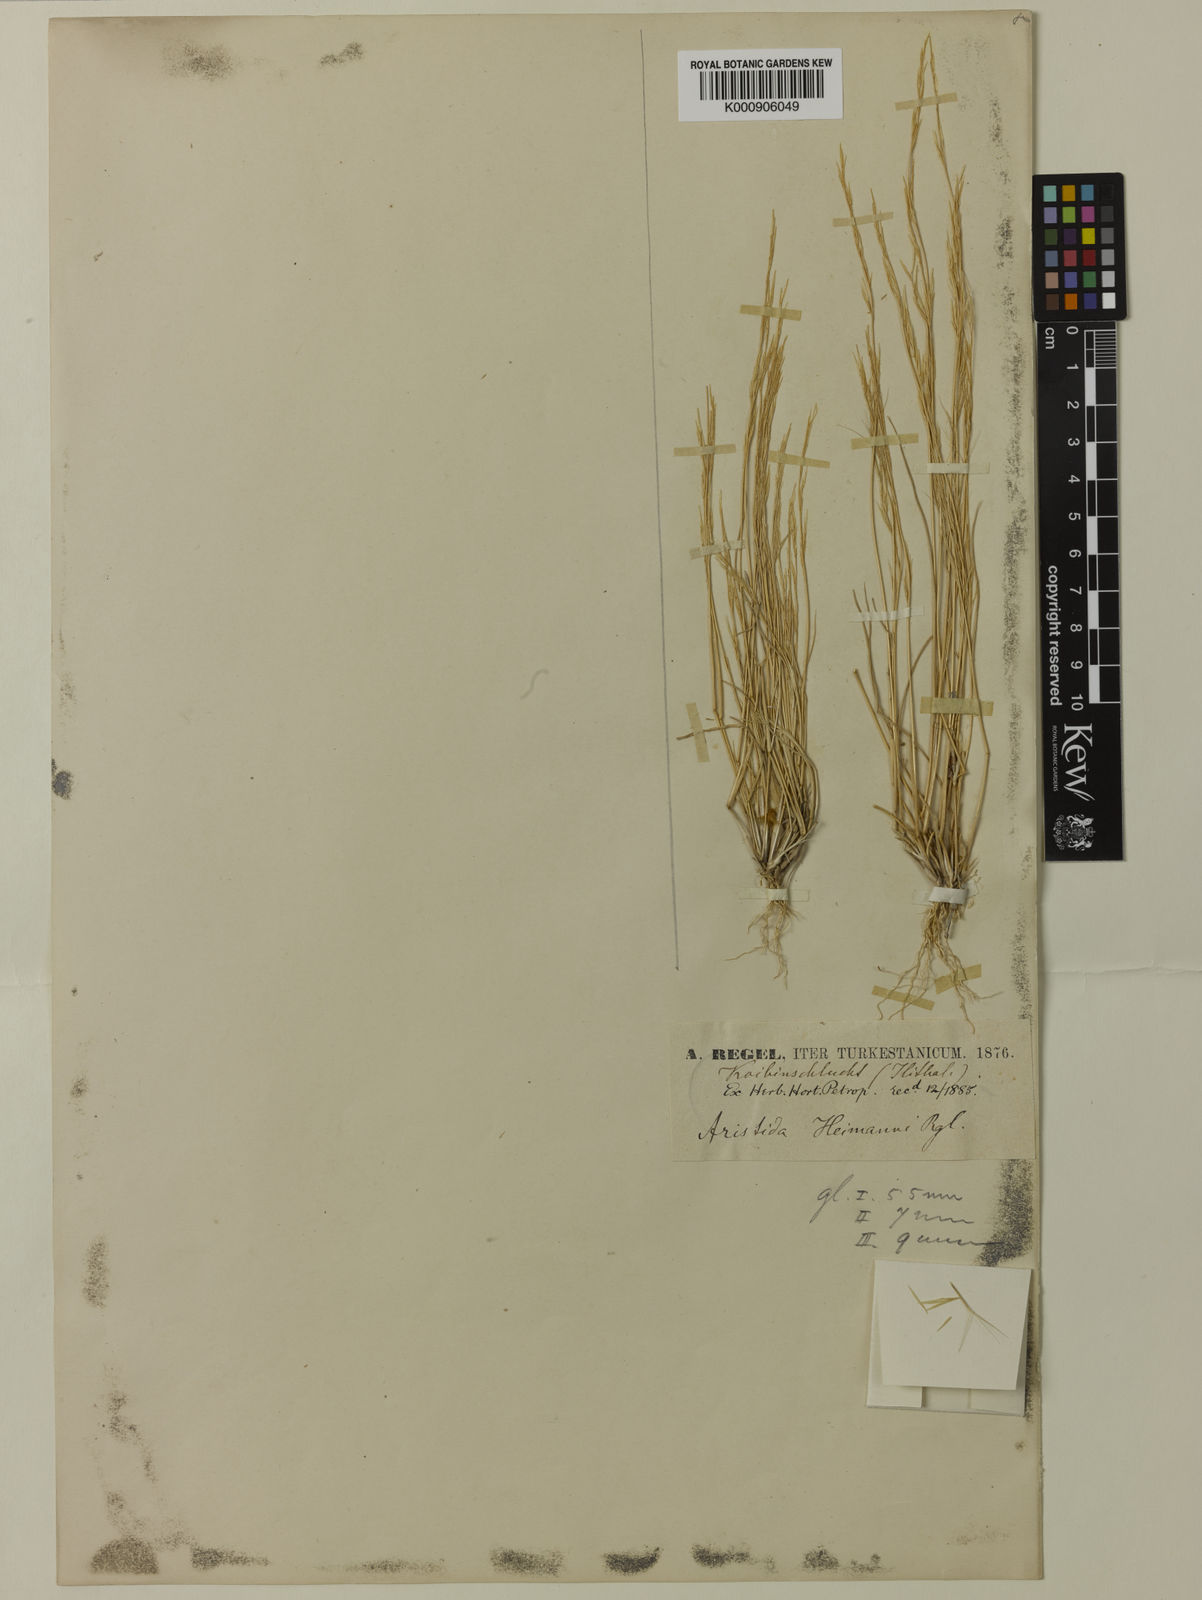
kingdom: Plantae
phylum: Tracheophyta
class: Liliopsida
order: Poales
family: Poaceae
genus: Aristida
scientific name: Aristida adscensionis
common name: Sixweeks threeawn
